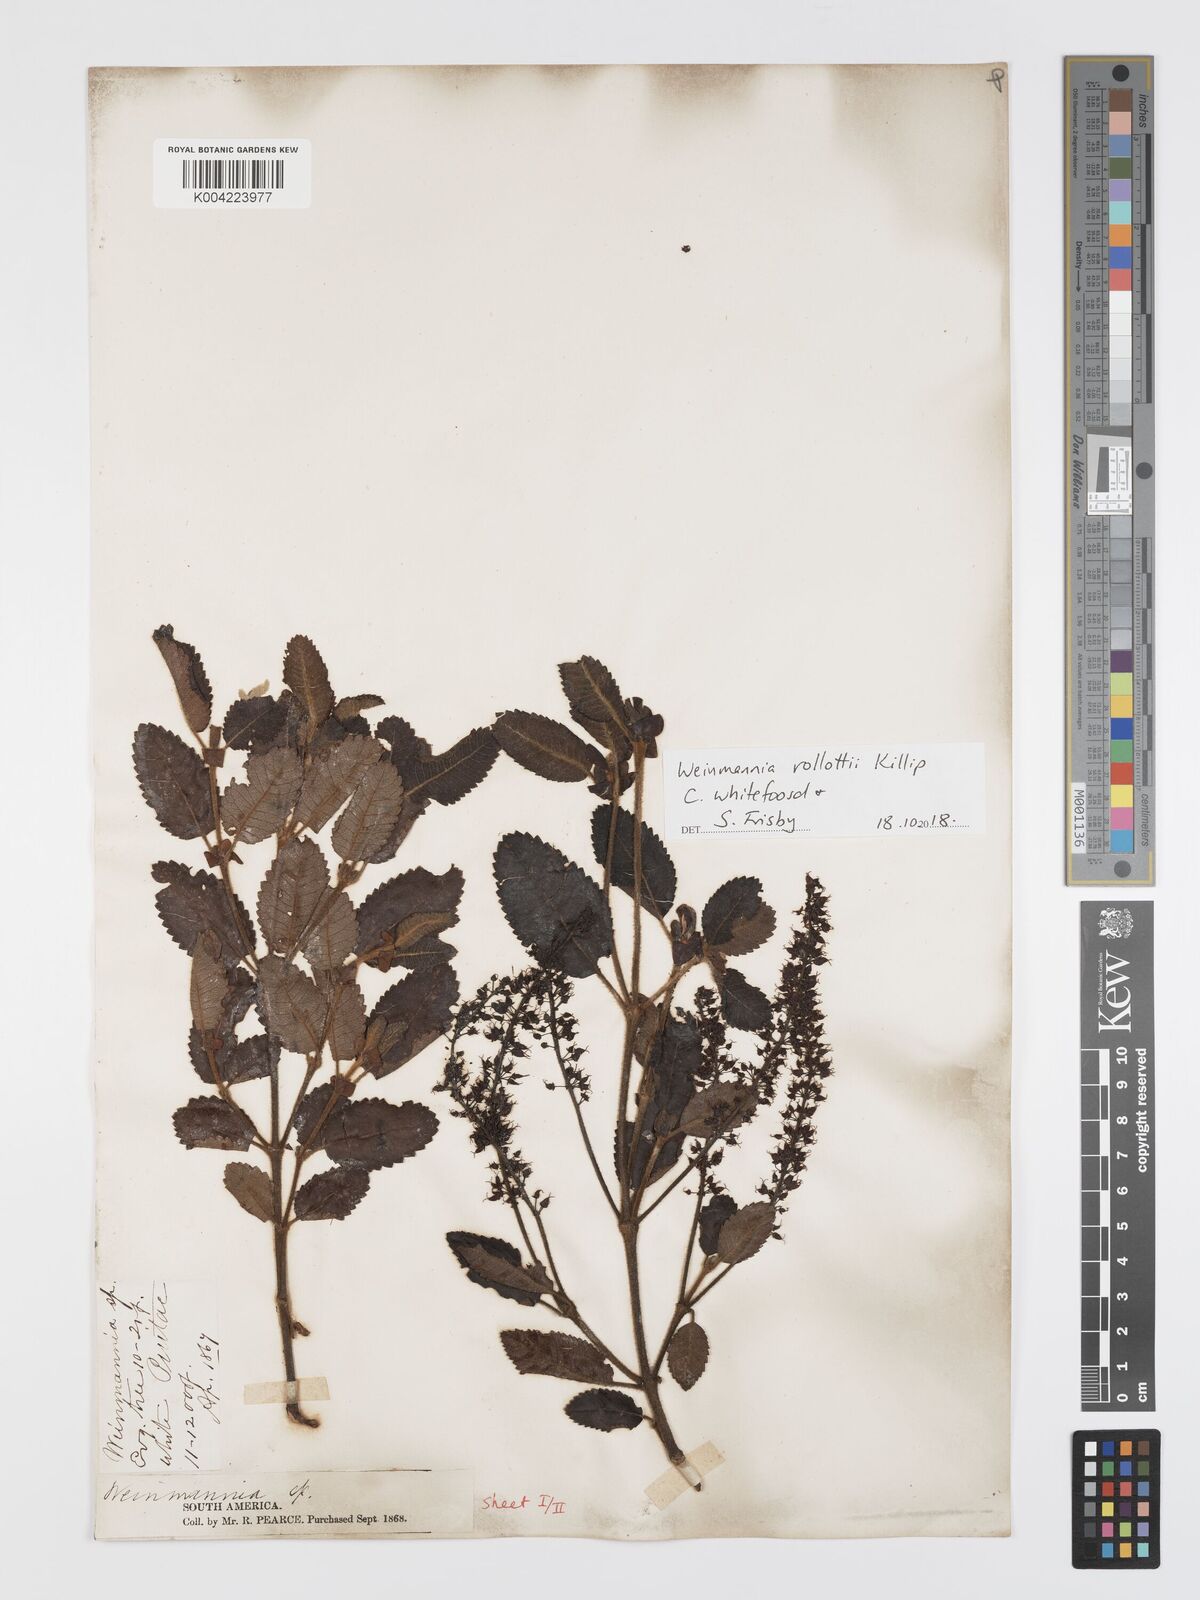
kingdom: Plantae
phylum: Tracheophyta
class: Magnoliopsida
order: Oxalidales
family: Cunoniaceae
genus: Weinmannia
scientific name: Weinmannia rollottii
